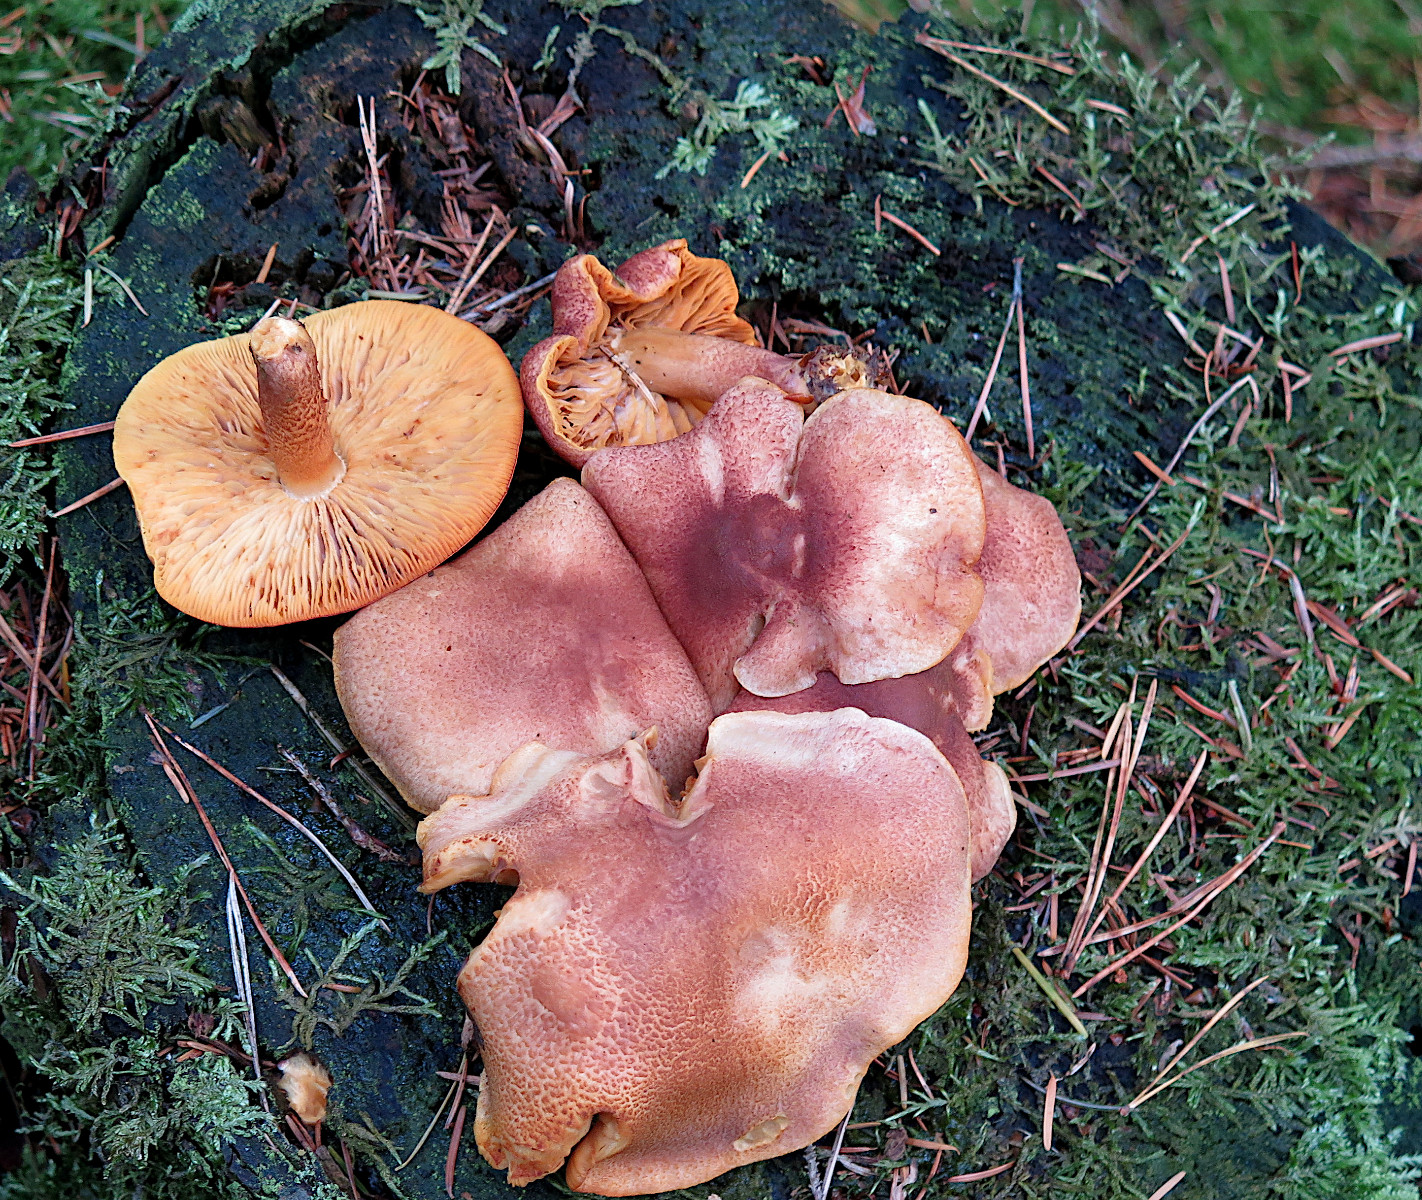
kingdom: Fungi
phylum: Basidiomycota
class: Agaricomycetes
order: Agaricales
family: Tricholomataceae
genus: Tricholomopsis
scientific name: Tricholomopsis rutilans
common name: purpur-væbnerhat
